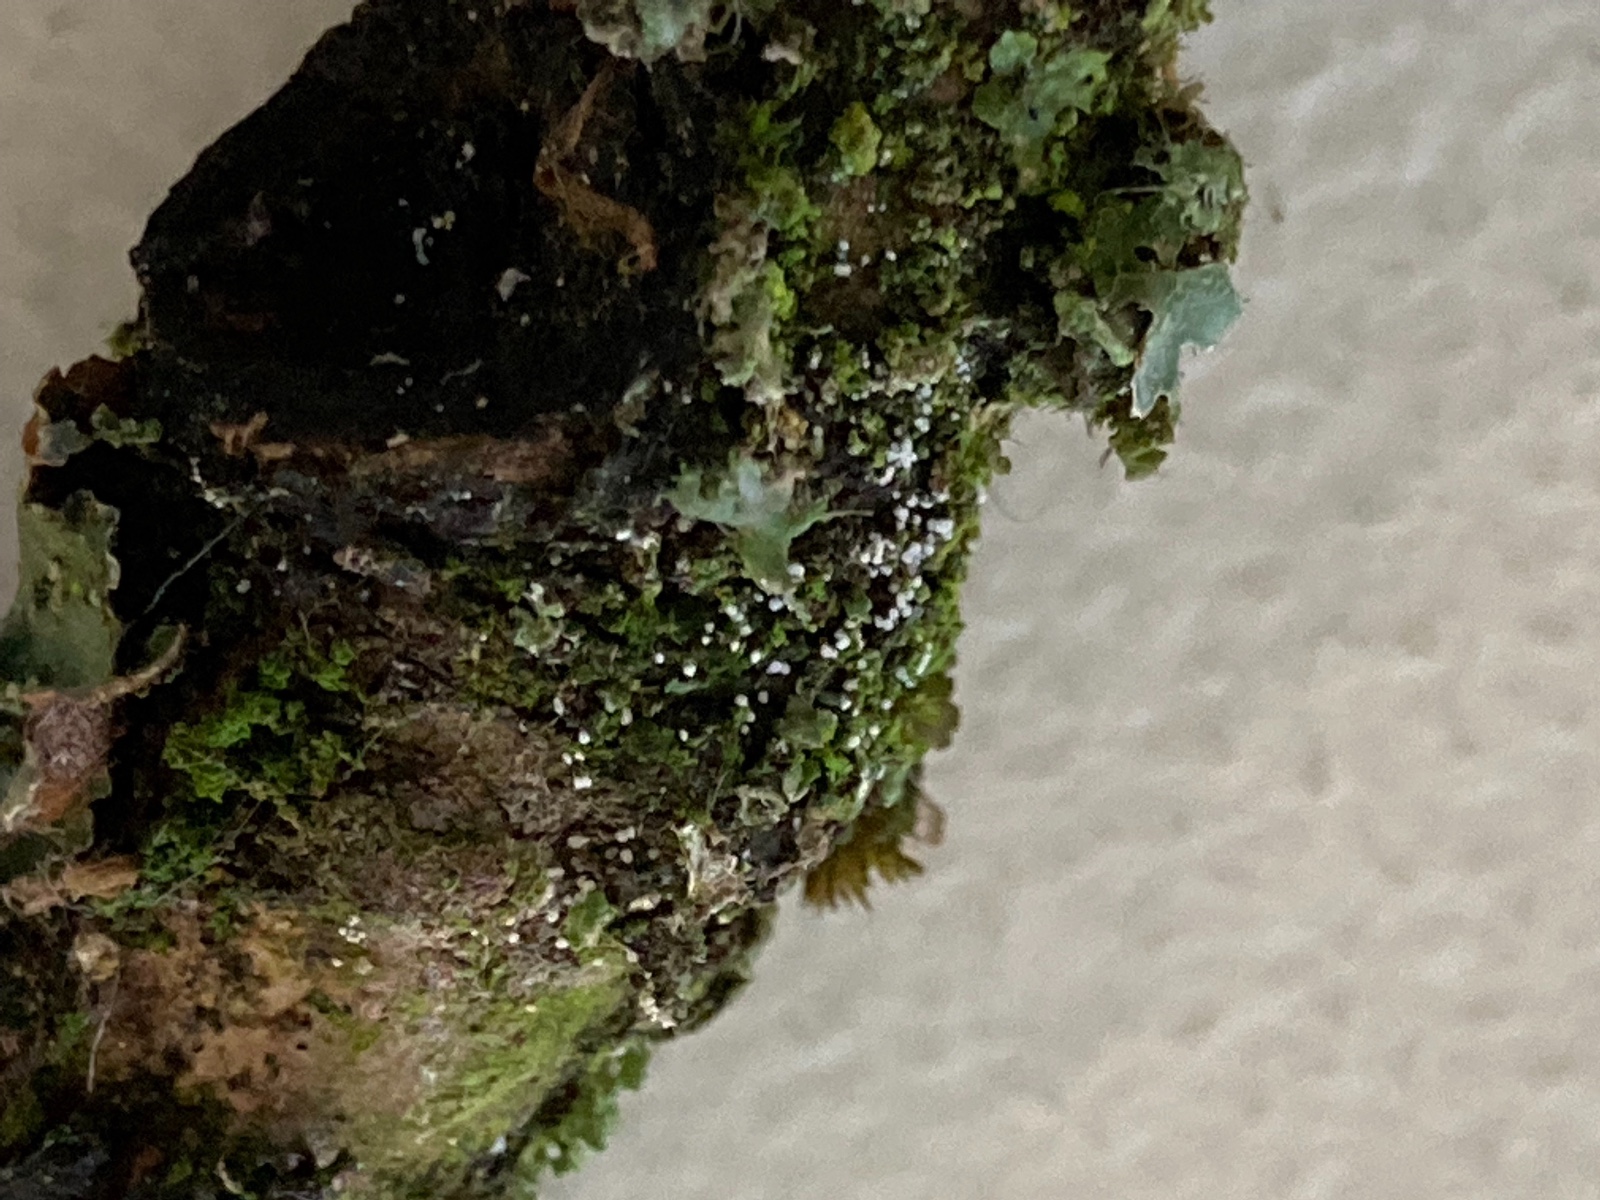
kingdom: Fungi
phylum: Basidiomycota
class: Agaricomycetes
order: Cantharellales
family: Hydnaceae
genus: Burgoa
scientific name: Burgoa angulosa
